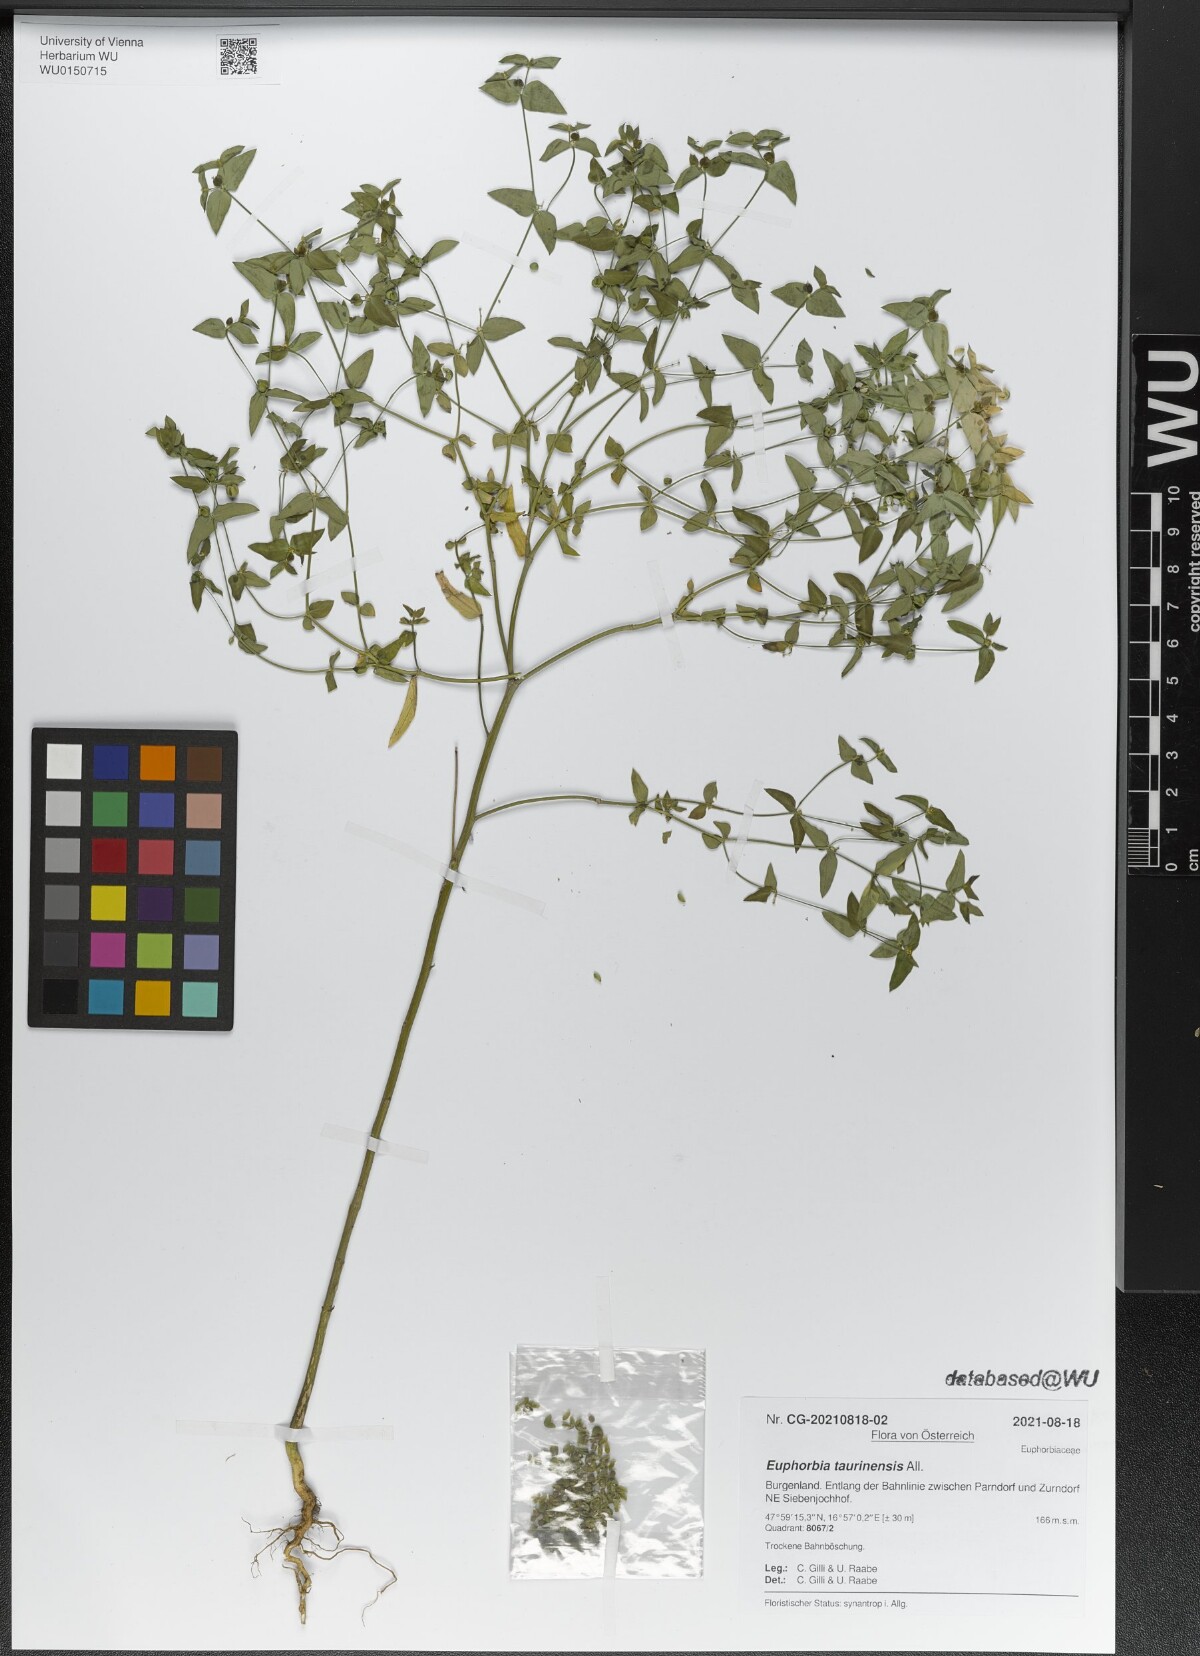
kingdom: Plantae
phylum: Tracheophyta
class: Magnoliopsida
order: Malpighiales
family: Euphorbiaceae
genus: Euphorbia
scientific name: Euphorbia taurinensis
